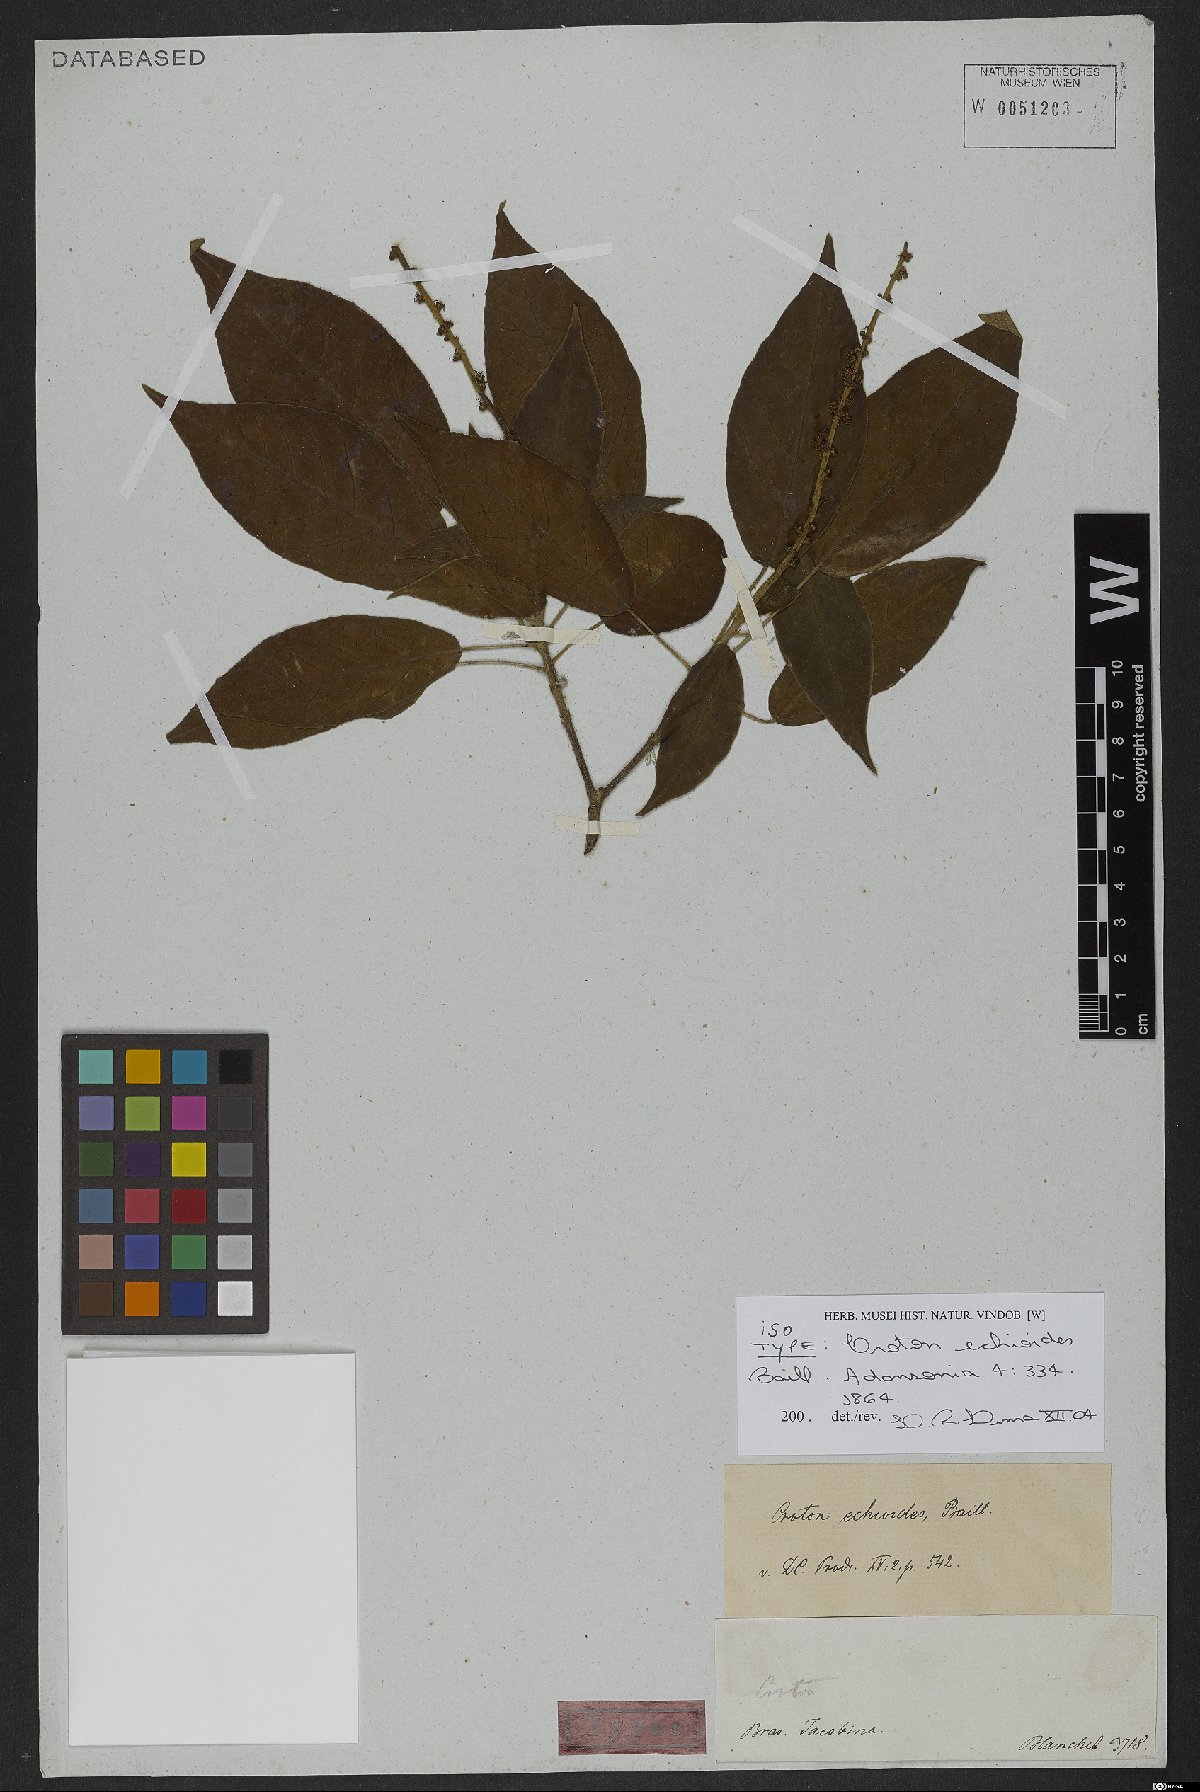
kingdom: Plantae
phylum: Tracheophyta
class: Magnoliopsida
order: Malpighiales
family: Euphorbiaceae
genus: Croton
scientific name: Croton echioideus
